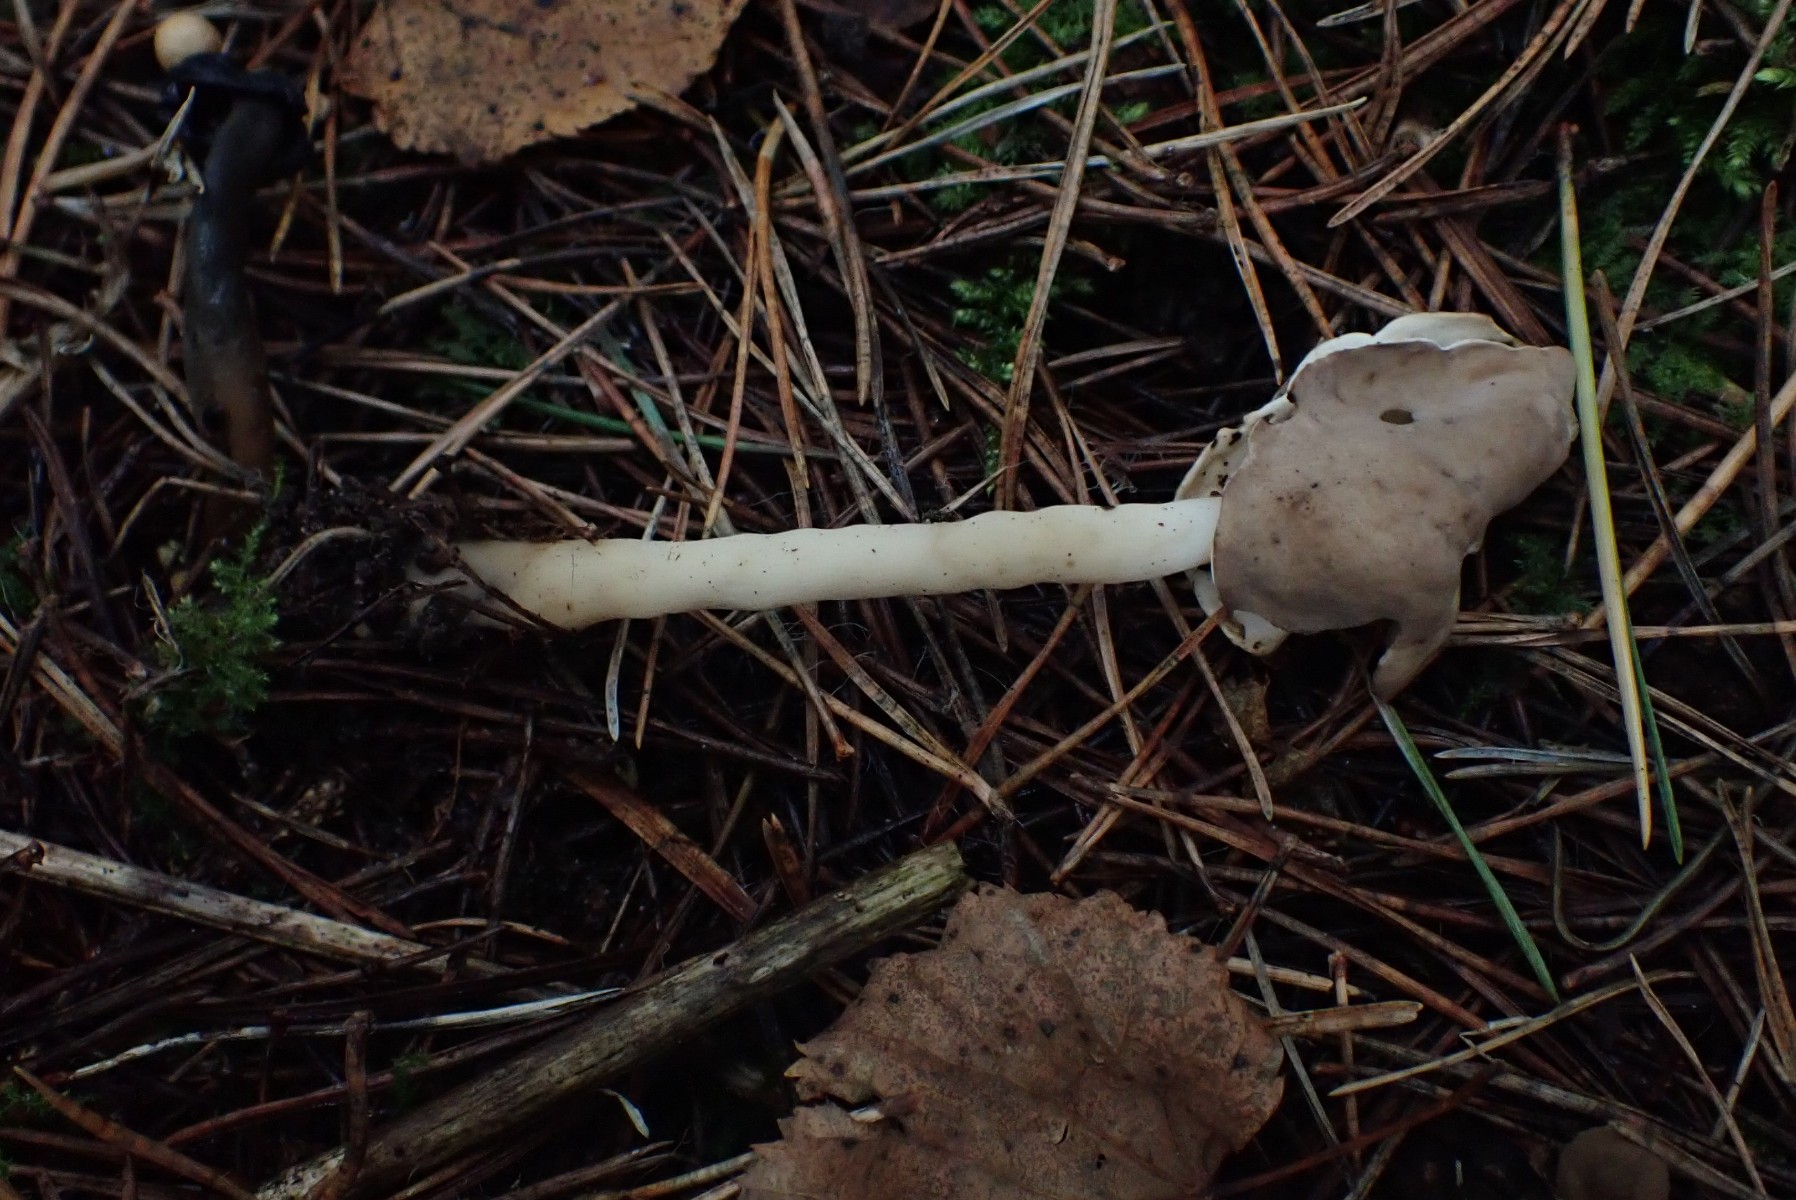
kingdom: Fungi
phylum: Ascomycota
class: Pezizomycetes
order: Pezizales
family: Helvellaceae
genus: Helvella
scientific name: Helvella elastica
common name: elastik-foldhat
